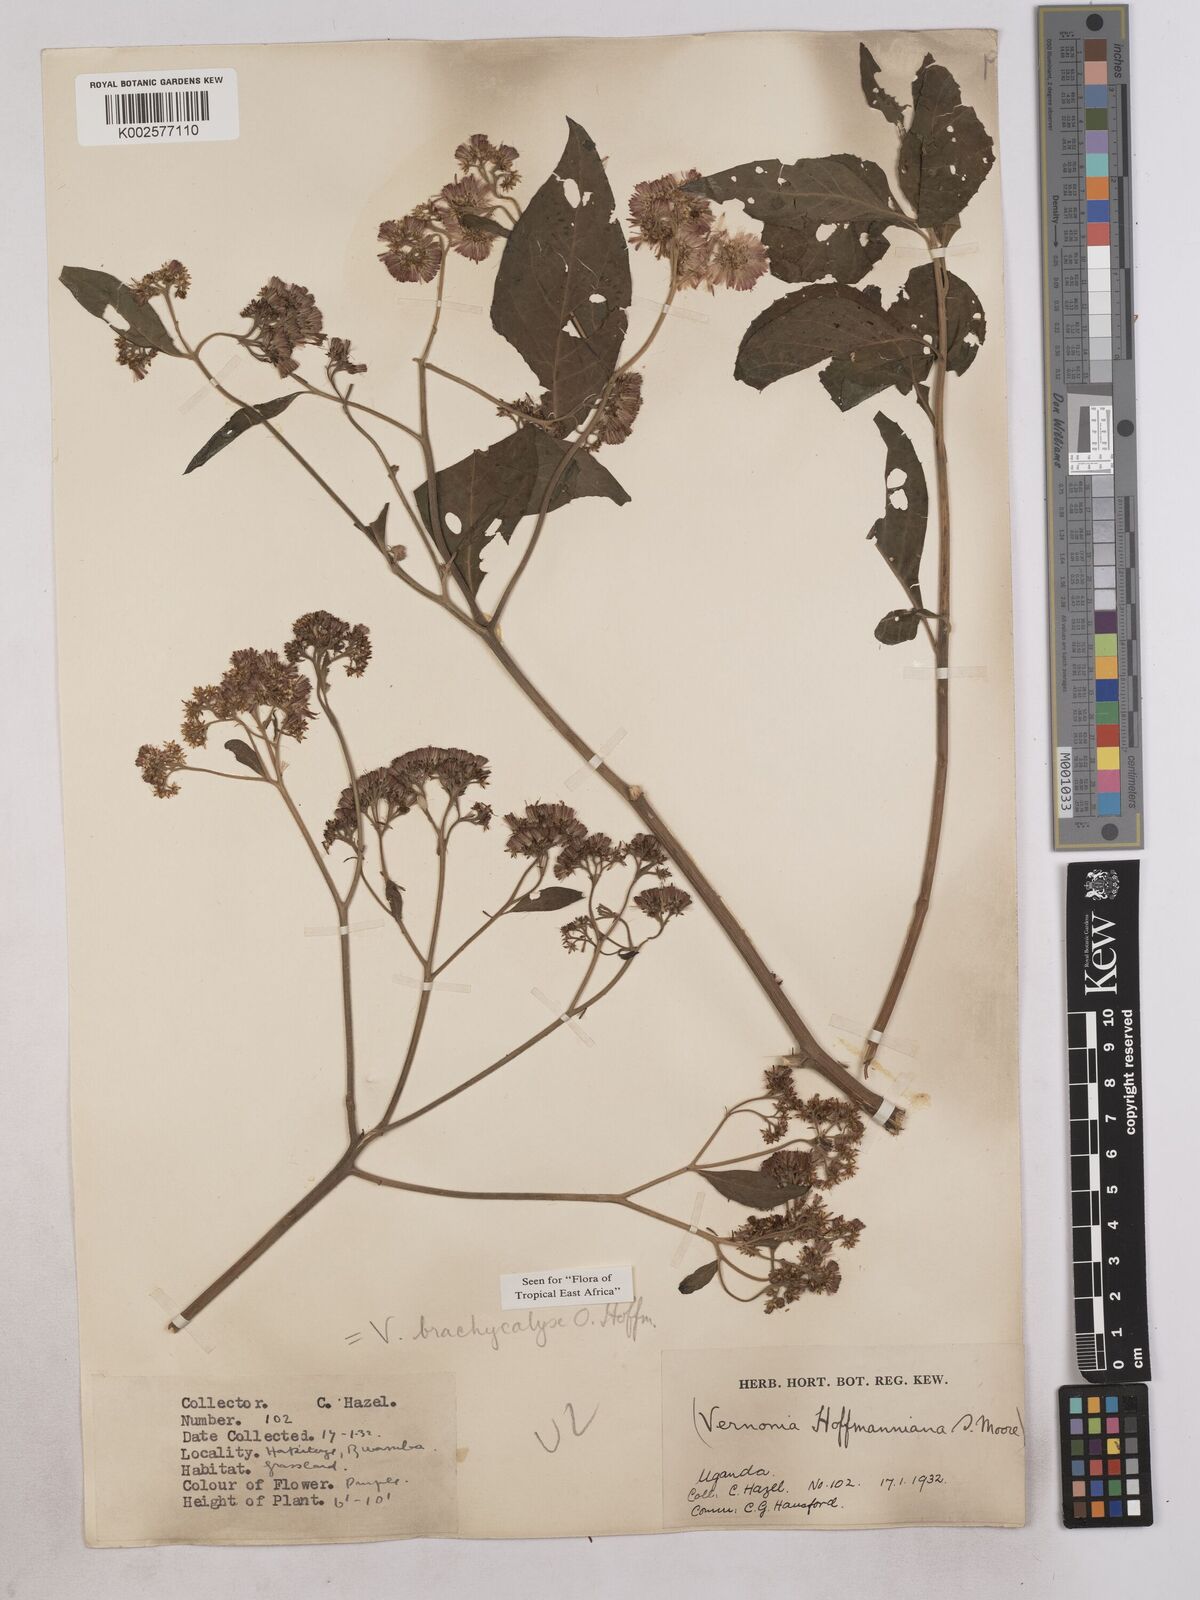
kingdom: Plantae
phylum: Tracheophyta
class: Magnoliopsida
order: Asterales
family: Asteraceae
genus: Hoffmannanthus
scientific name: Hoffmannanthus abbotianus
